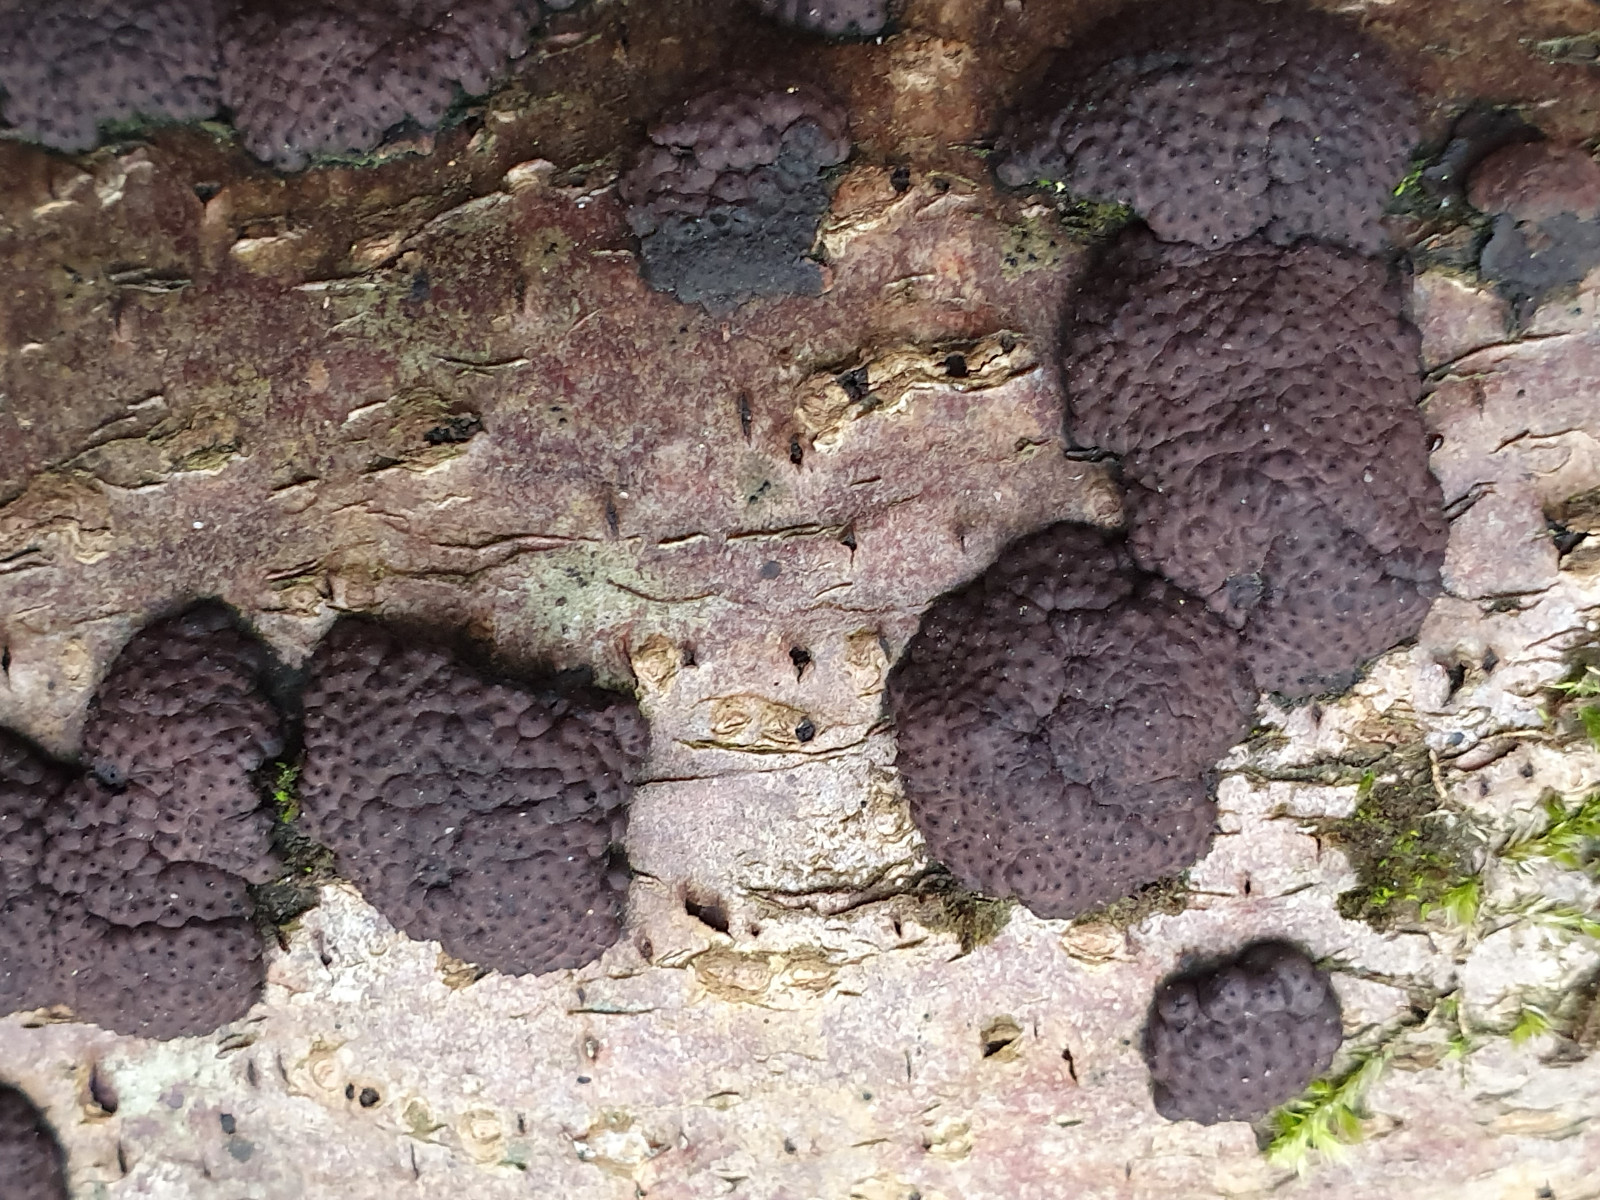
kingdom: Fungi
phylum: Ascomycota
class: Sordariomycetes
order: Xylariales
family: Hypoxylaceae
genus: Jackrogersella
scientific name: Jackrogersella multiformis
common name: foranderlig kulbær
